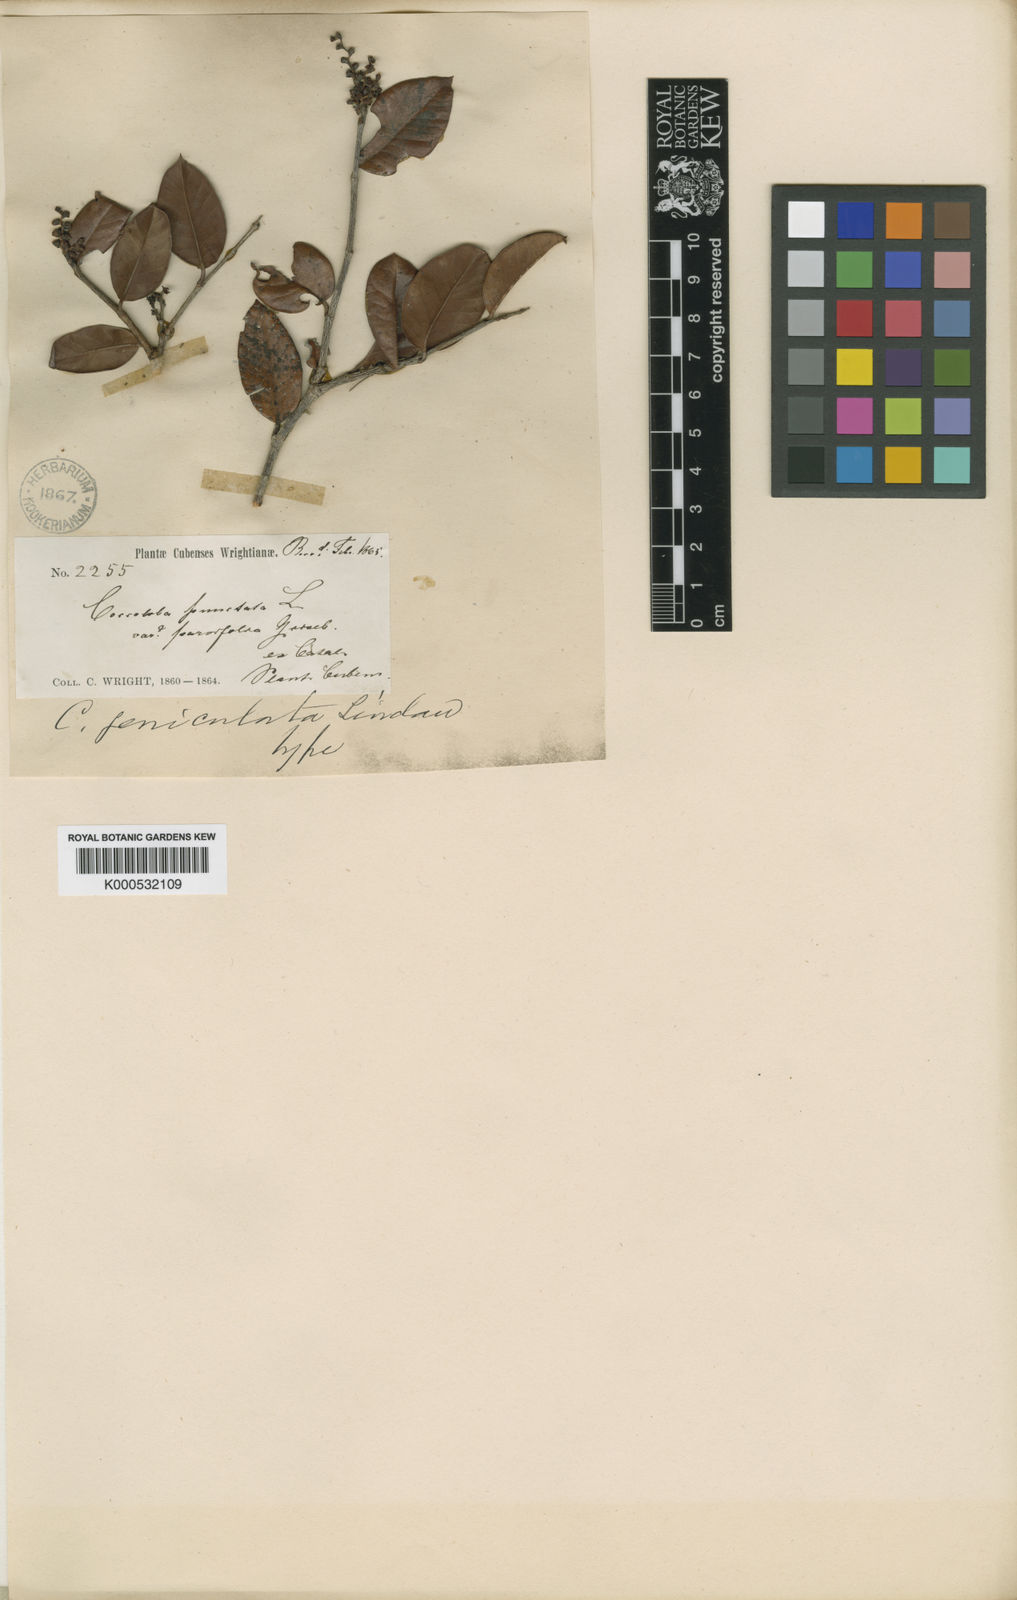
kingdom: Plantae
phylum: Tracheophyta
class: Magnoliopsida
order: Caryophyllales
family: Polygonaceae
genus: Coccoloba
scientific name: Coccoloba geniculata
